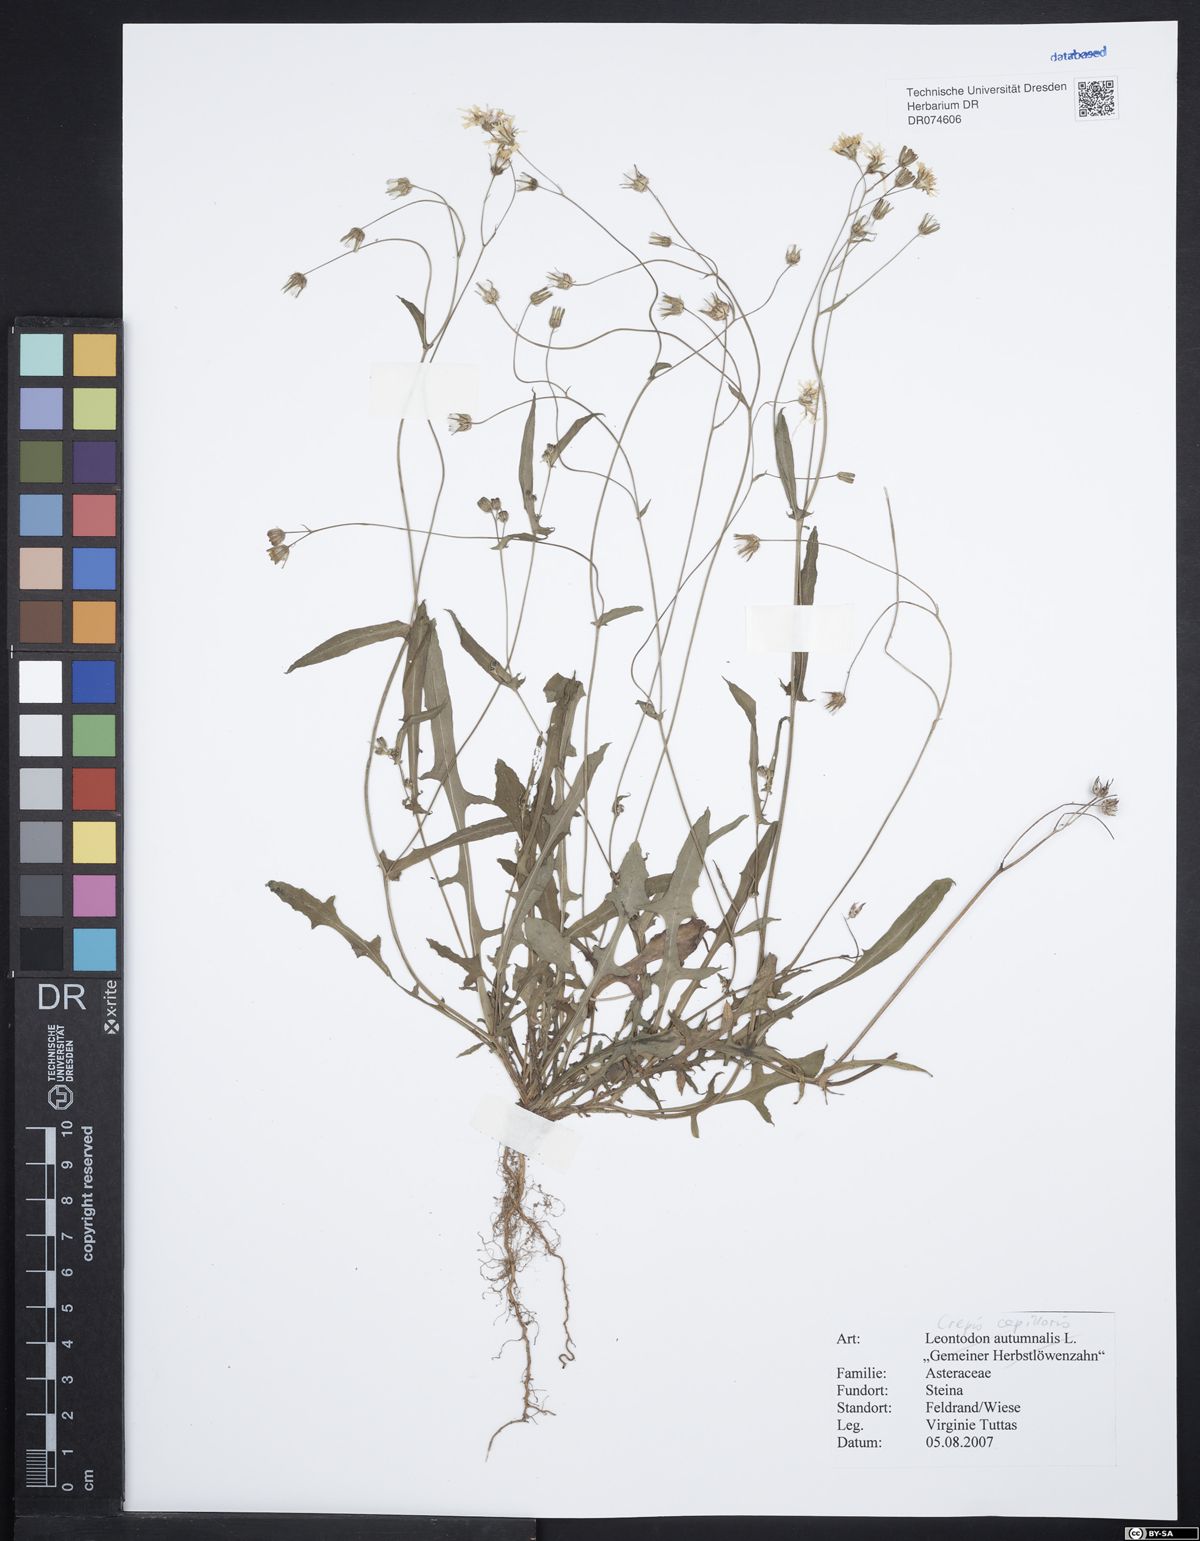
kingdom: Plantae
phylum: Tracheophyta
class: Magnoliopsida
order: Asterales
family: Asteraceae
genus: Crepis
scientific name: Crepis capillaris
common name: Smooth hawksbeard
